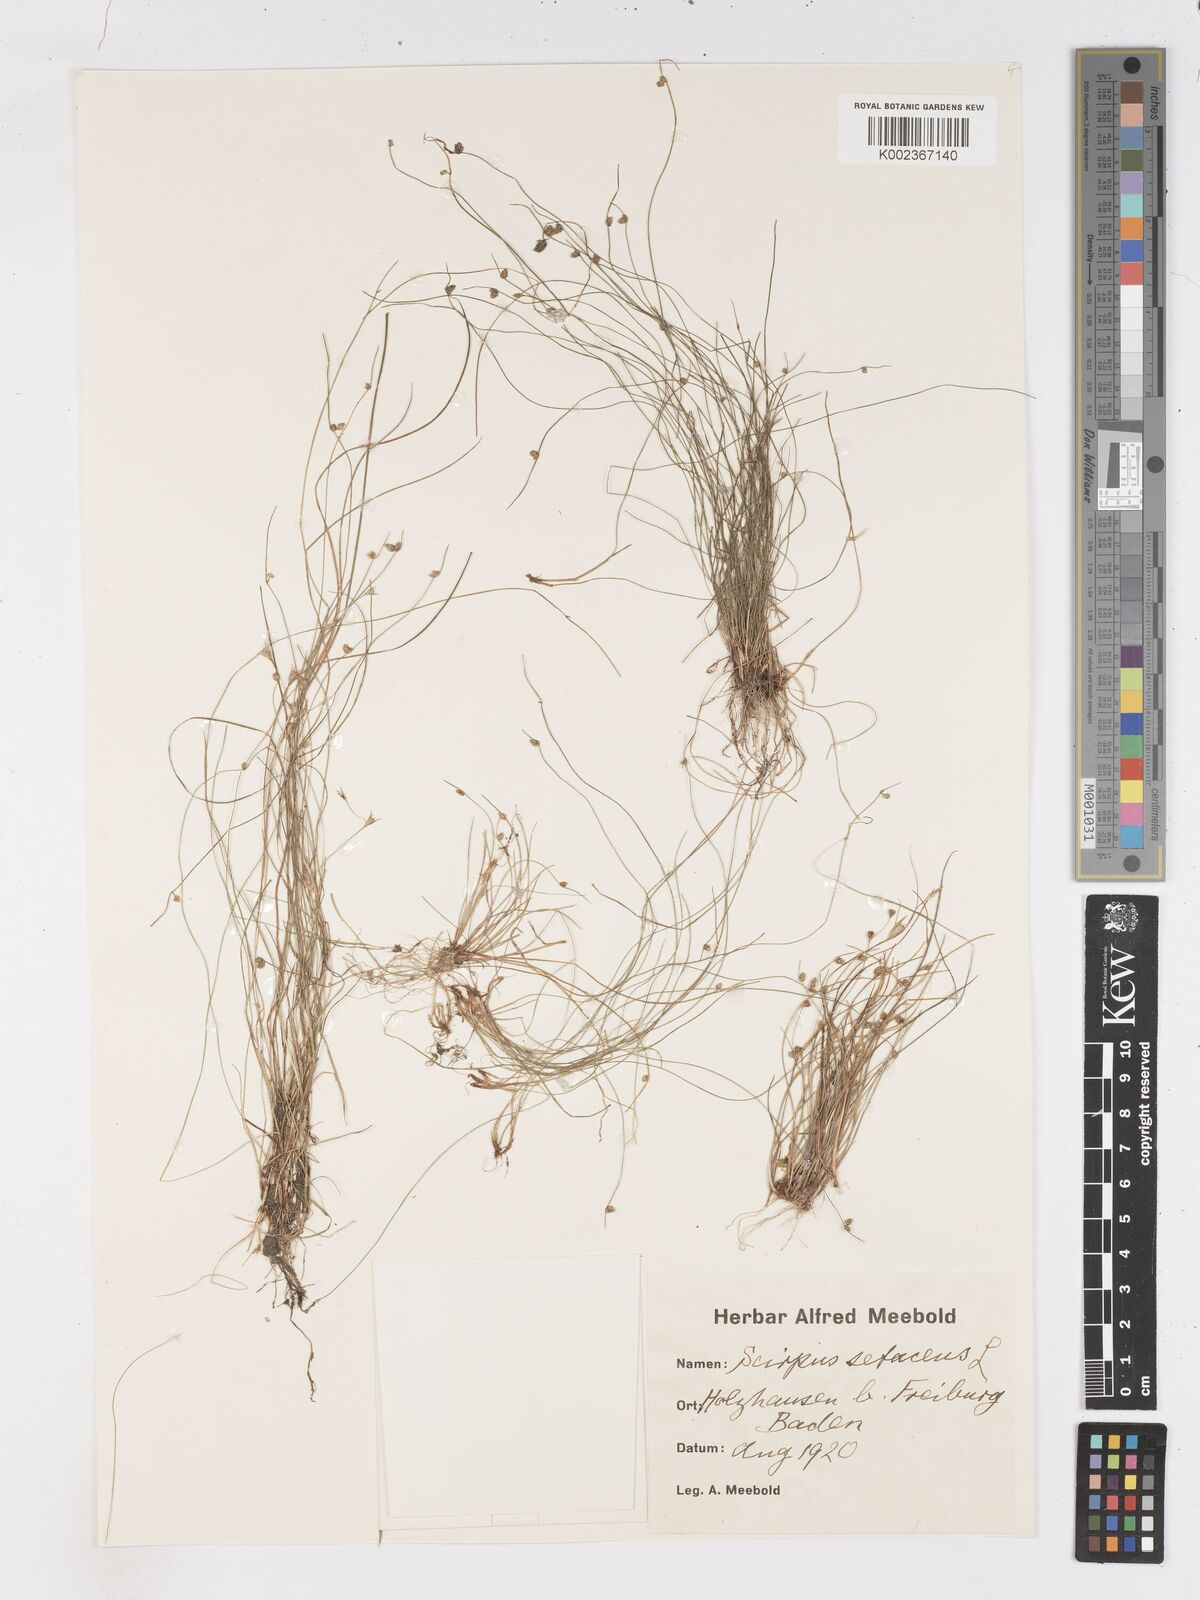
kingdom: Plantae
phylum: Tracheophyta
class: Liliopsida
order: Poales
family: Cyperaceae
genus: Isolepis
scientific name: Isolepis setacea
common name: Bristle club-rush
